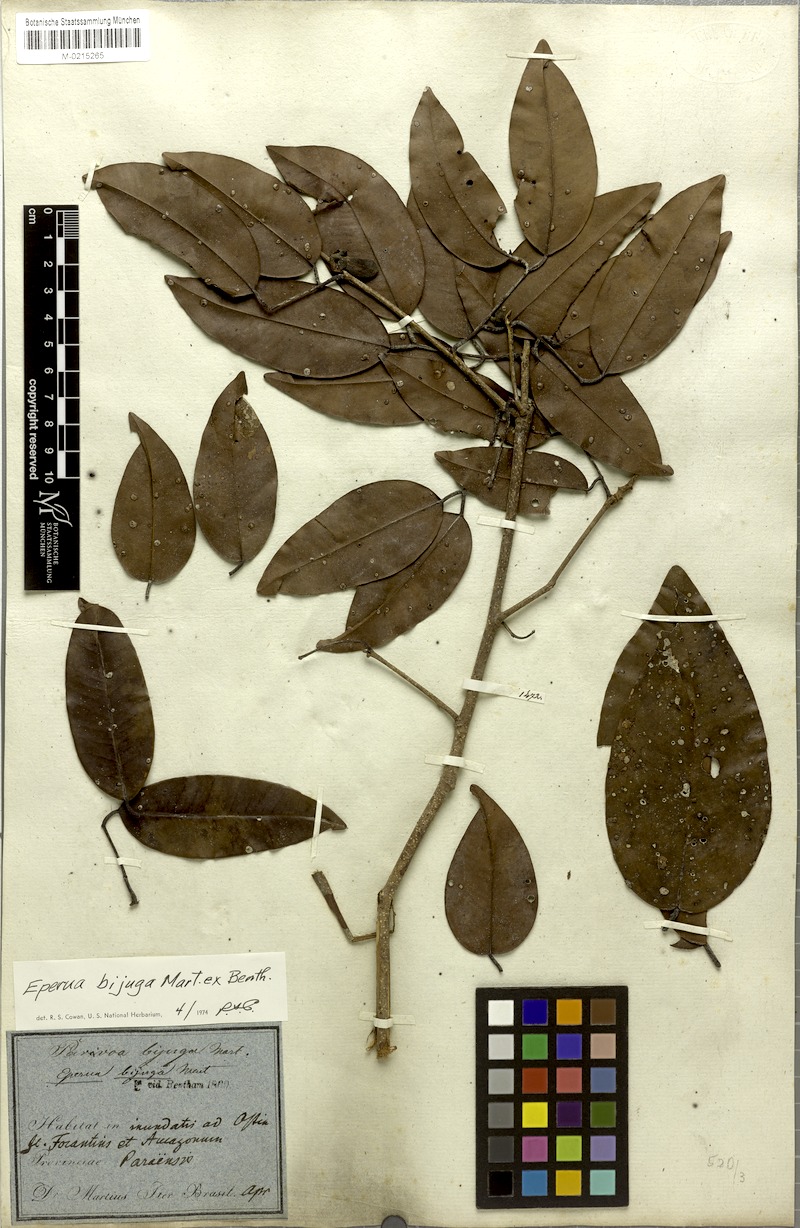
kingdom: Plantae
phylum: Tracheophyta
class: Magnoliopsida
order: Fabales
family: Fabaceae
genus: Eperua
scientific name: Eperua bijuga
